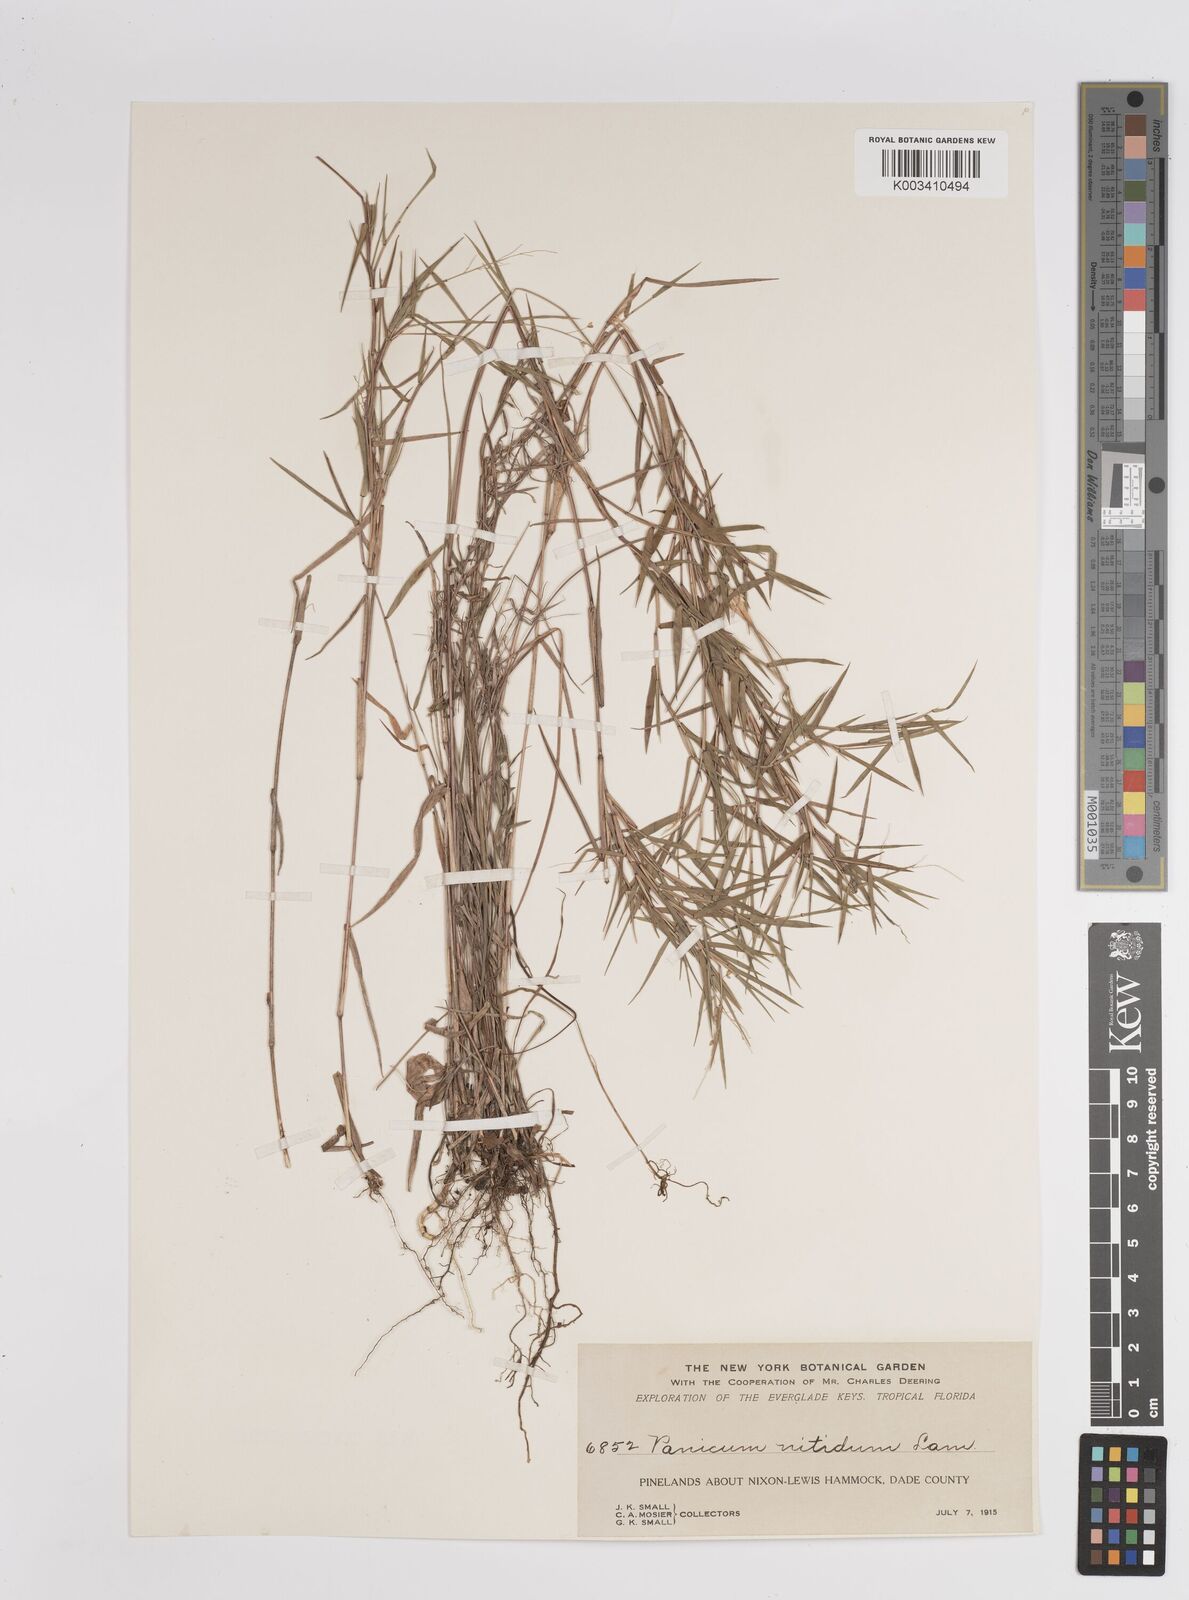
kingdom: Plantae
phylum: Tracheophyta
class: Liliopsida
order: Poales
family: Poaceae
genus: Dichanthelium
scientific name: Dichanthelium polyanthes
